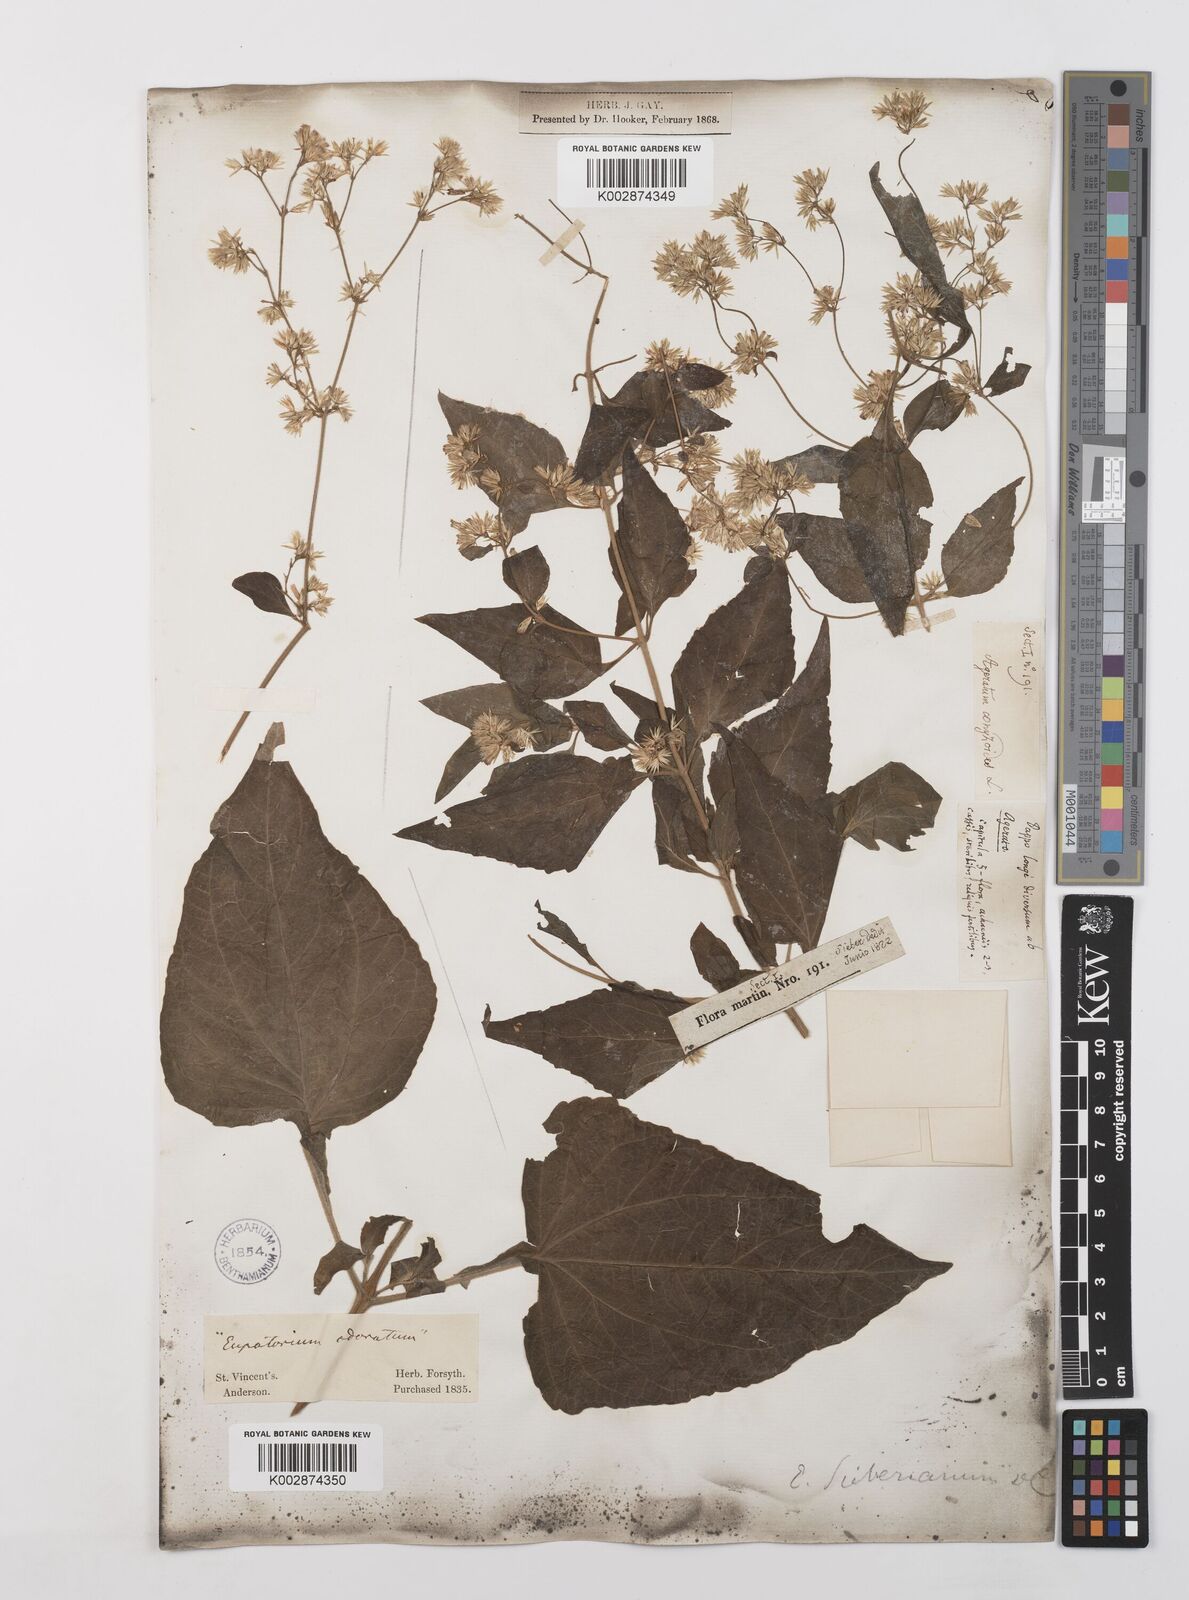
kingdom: Plantae
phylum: Tracheophyta
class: Magnoliopsida
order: Asterales
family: Asteraceae
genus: Condylidium
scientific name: Condylidium iresinoides
